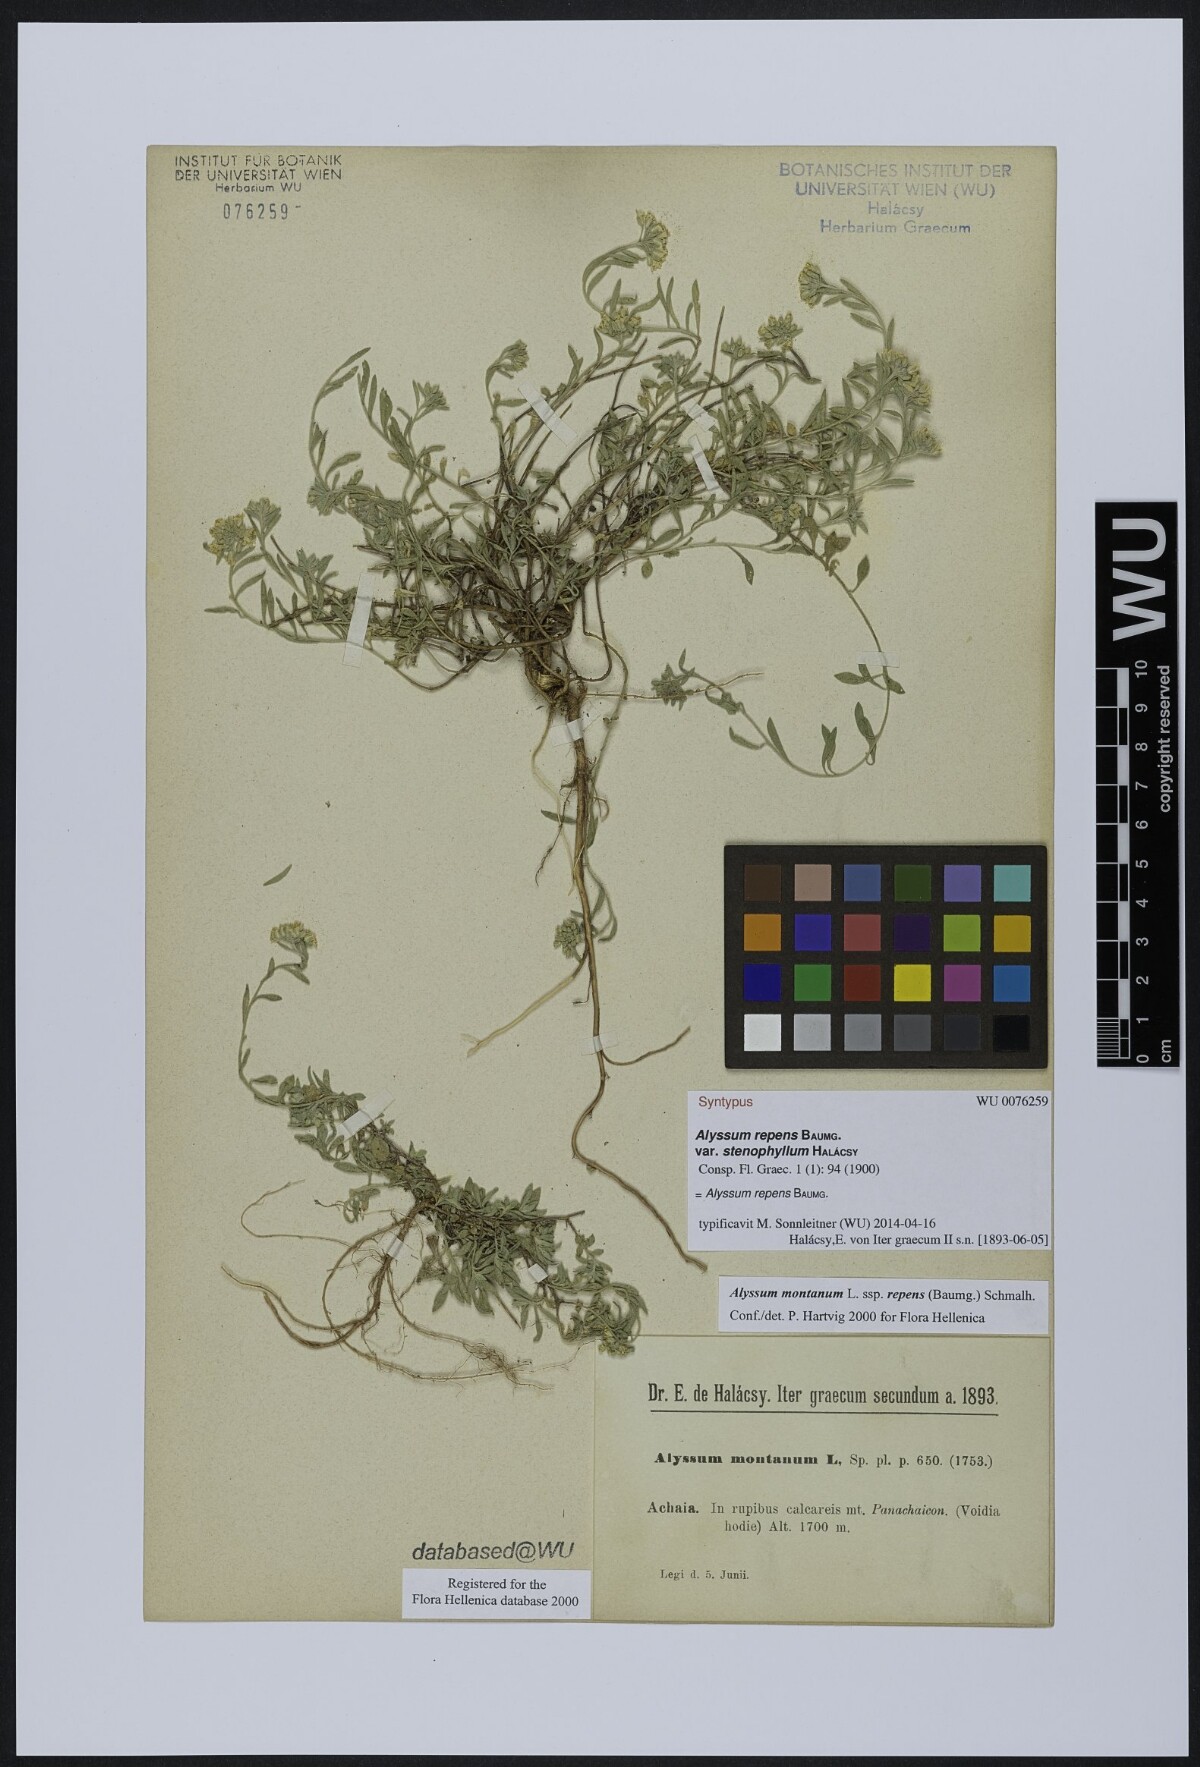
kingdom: Plantae
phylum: Tracheophyta
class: Magnoliopsida
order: Brassicales
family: Brassicaceae
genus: Alyssum
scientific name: Alyssum trichostachyum
